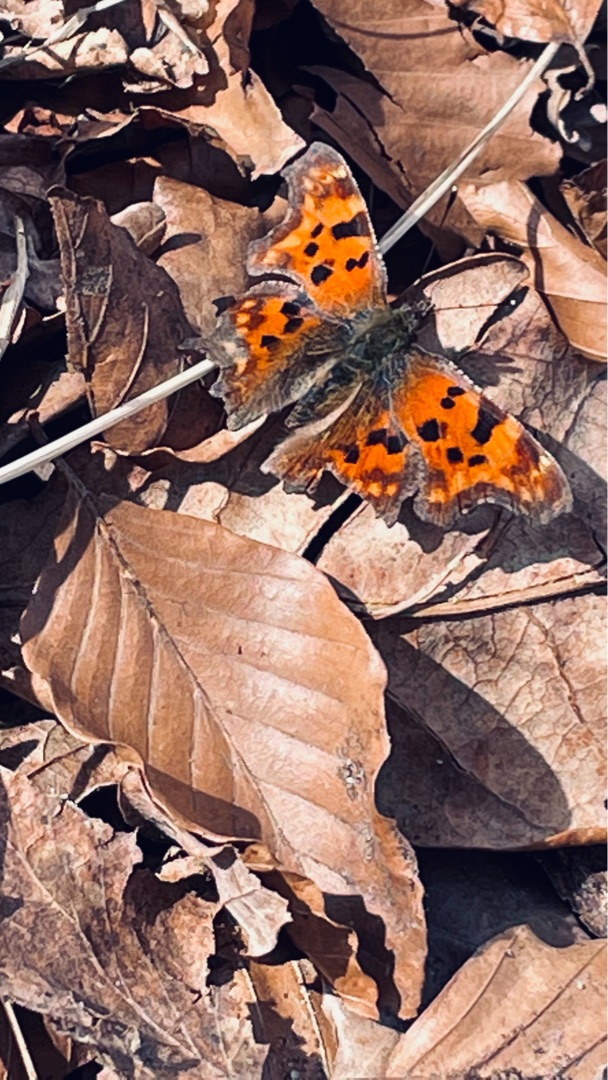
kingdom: Animalia
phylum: Arthropoda
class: Insecta
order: Lepidoptera
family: Nymphalidae
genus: Polygonia
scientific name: Polygonia c-album
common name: Det hvide C
